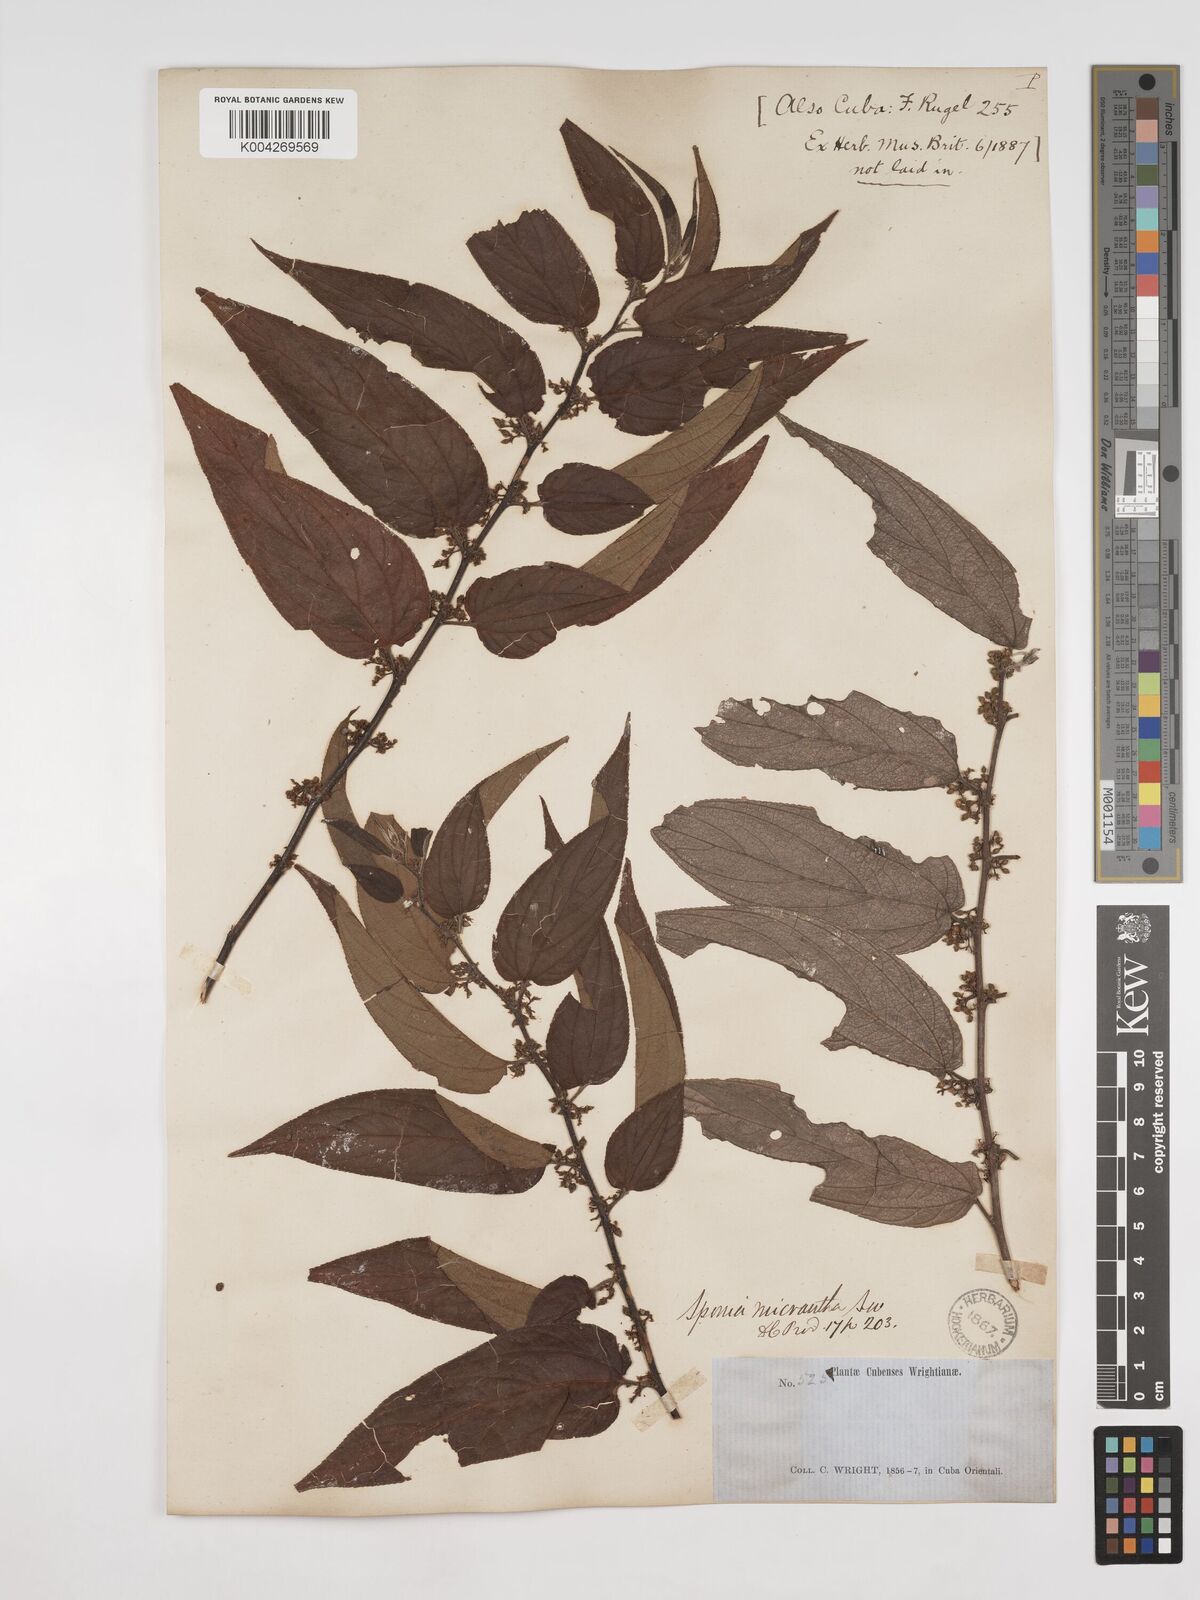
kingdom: Plantae
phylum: Tracheophyta
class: Magnoliopsida
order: Rosales
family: Cannabaceae
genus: Trema
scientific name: Trema micranthum
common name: Jamaican nettletree
